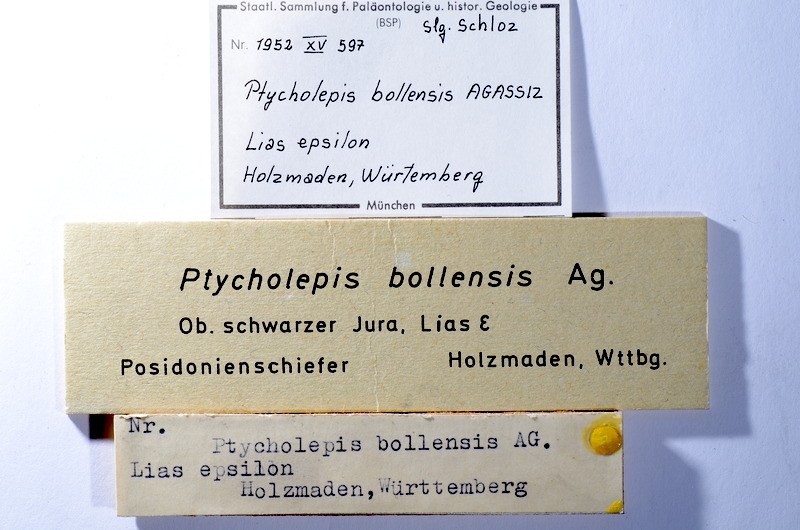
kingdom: Animalia
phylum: Chordata
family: Ptycholepididae
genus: Ptycholepis
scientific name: Ptycholepis bollensis
